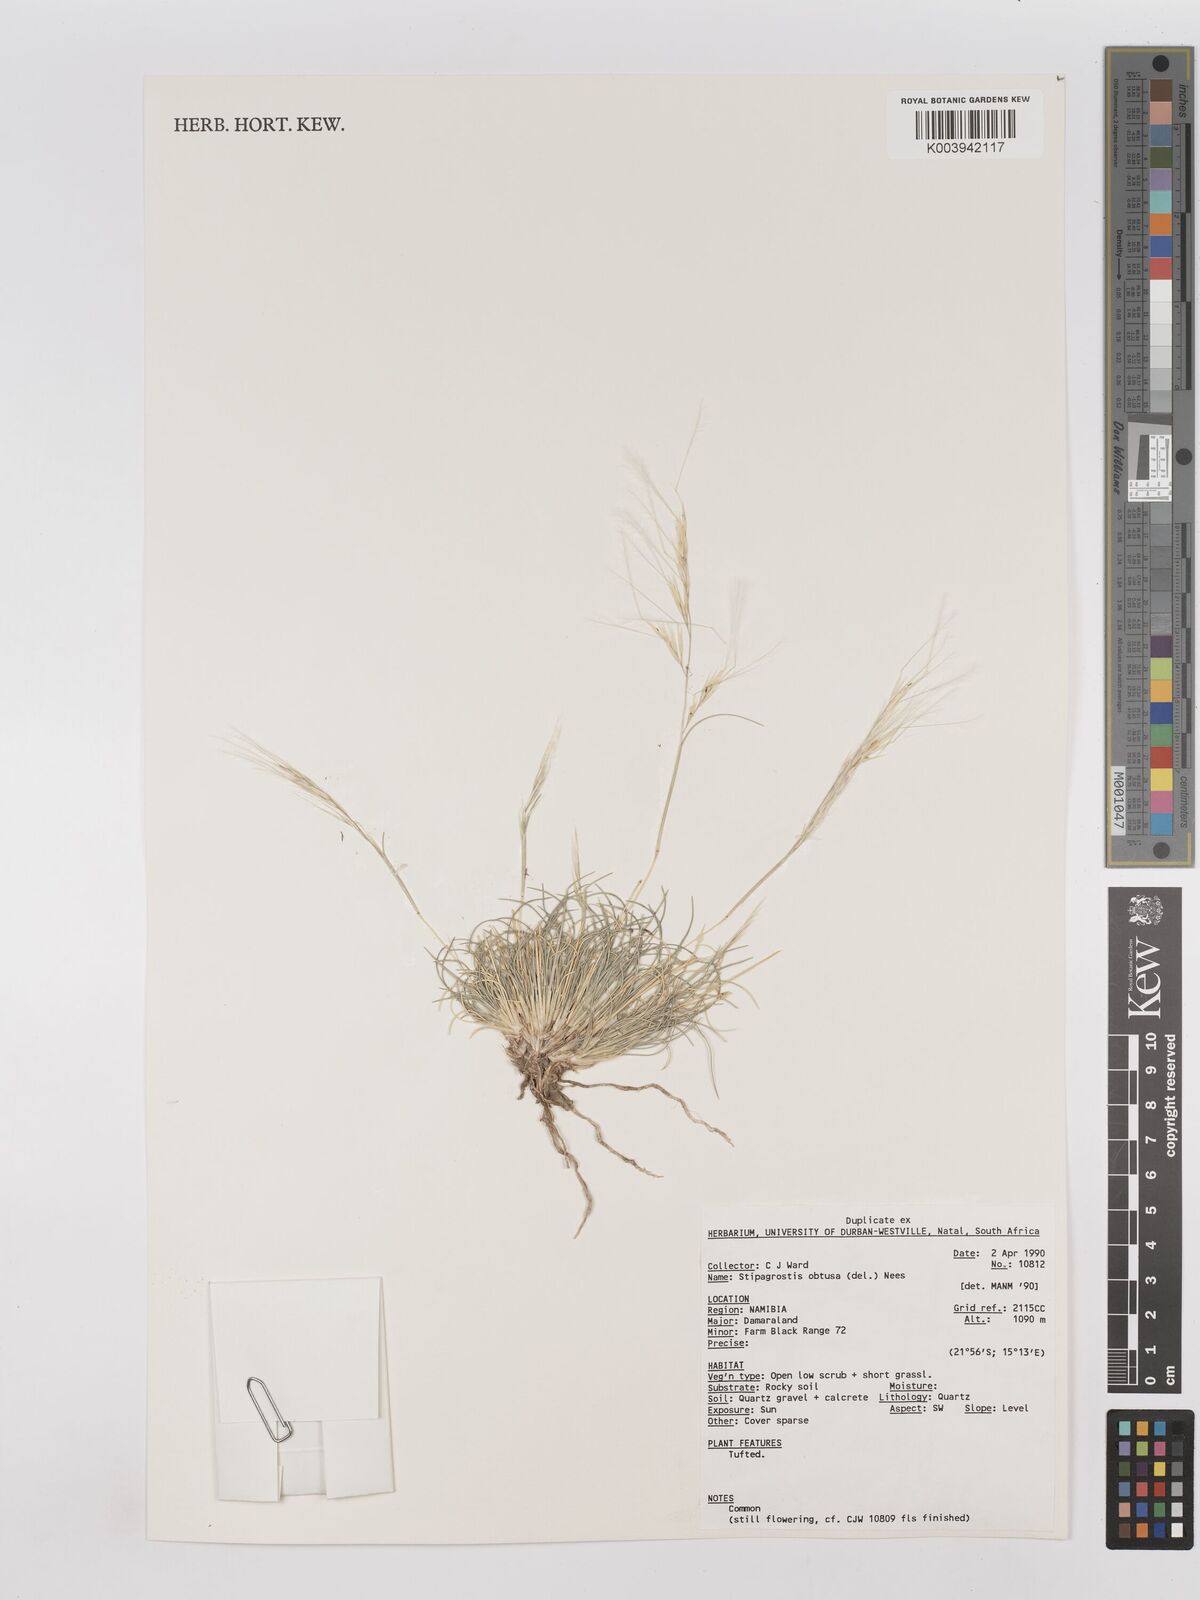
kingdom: Plantae
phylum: Tracheophyta
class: Liliopsida
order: Poales
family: Poaceae
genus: Stipagrostis
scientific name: Stipagrostis obtusa
